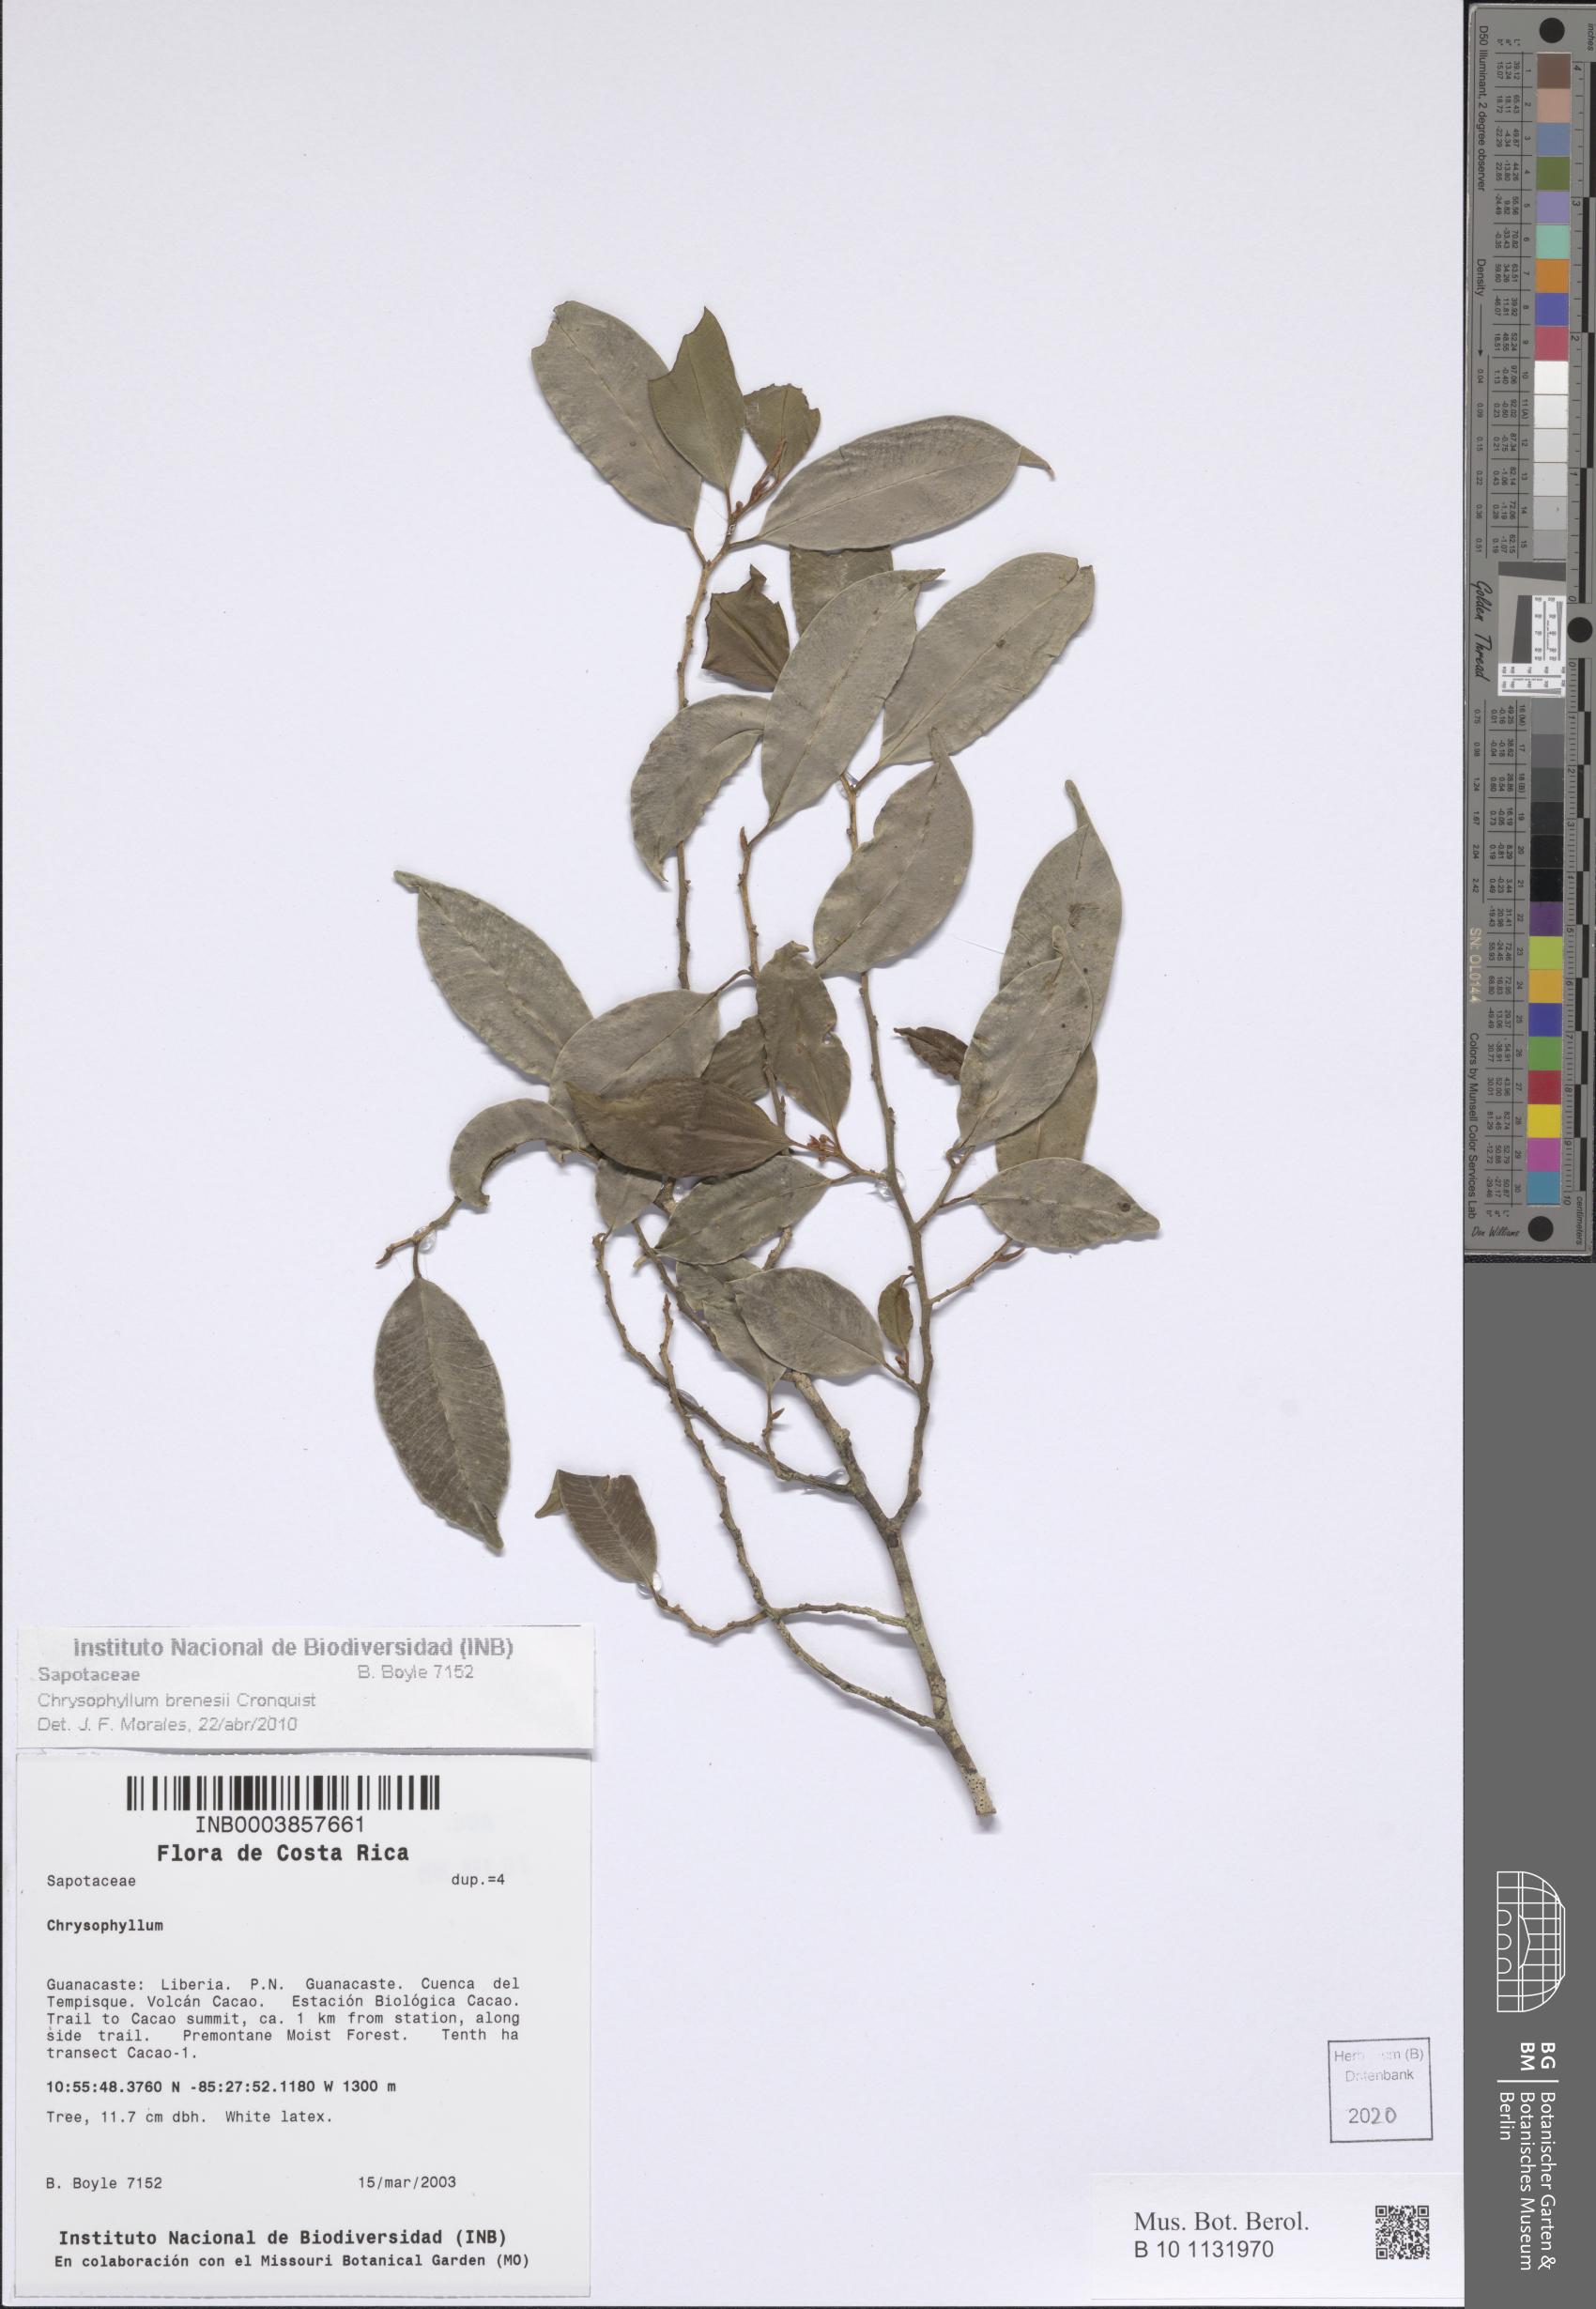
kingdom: Plantae
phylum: Tracheophyta
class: Magnoliopsida
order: Ericales
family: Sapotaceae
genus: Chrysophyllum
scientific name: Chrysophyllum brenesii
